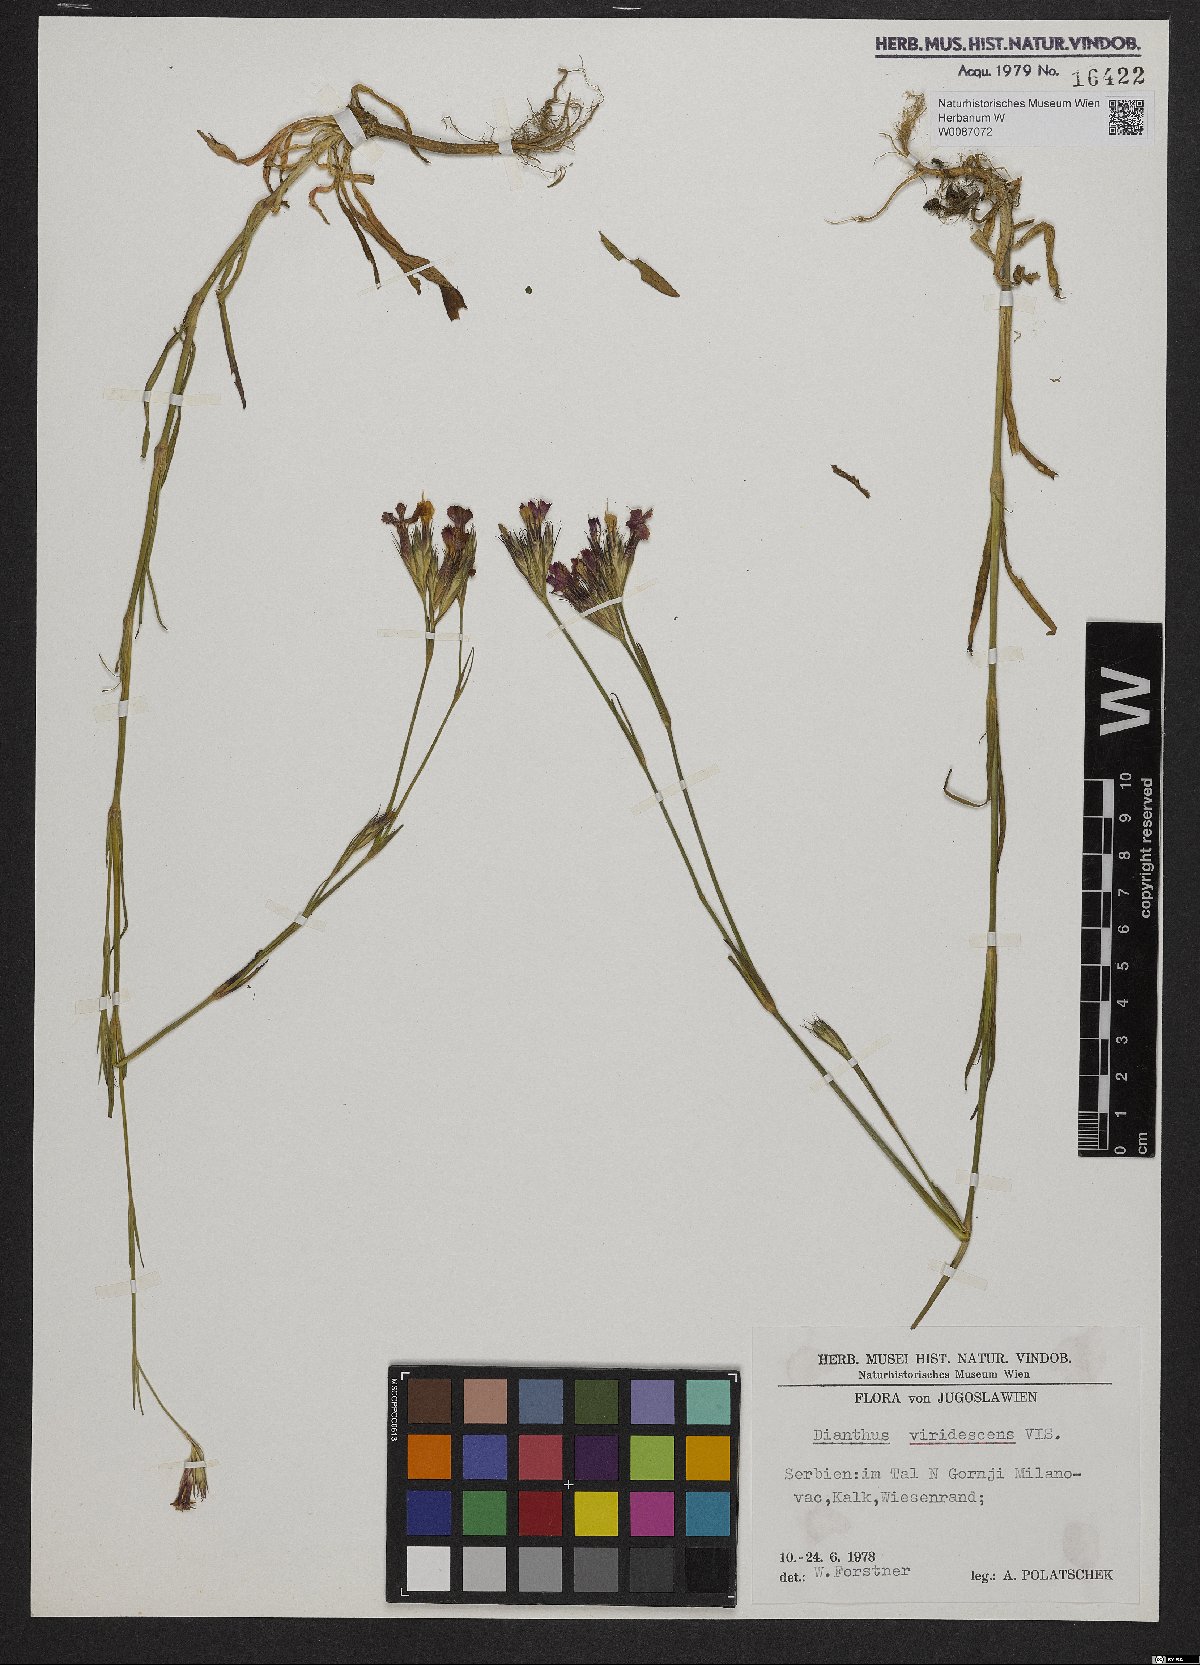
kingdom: Plantae
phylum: Tracheophyta
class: Magnoliopsida
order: Caryophyllales
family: Caryophyllaceae
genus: Dianthus
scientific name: Dianthus viridescens
